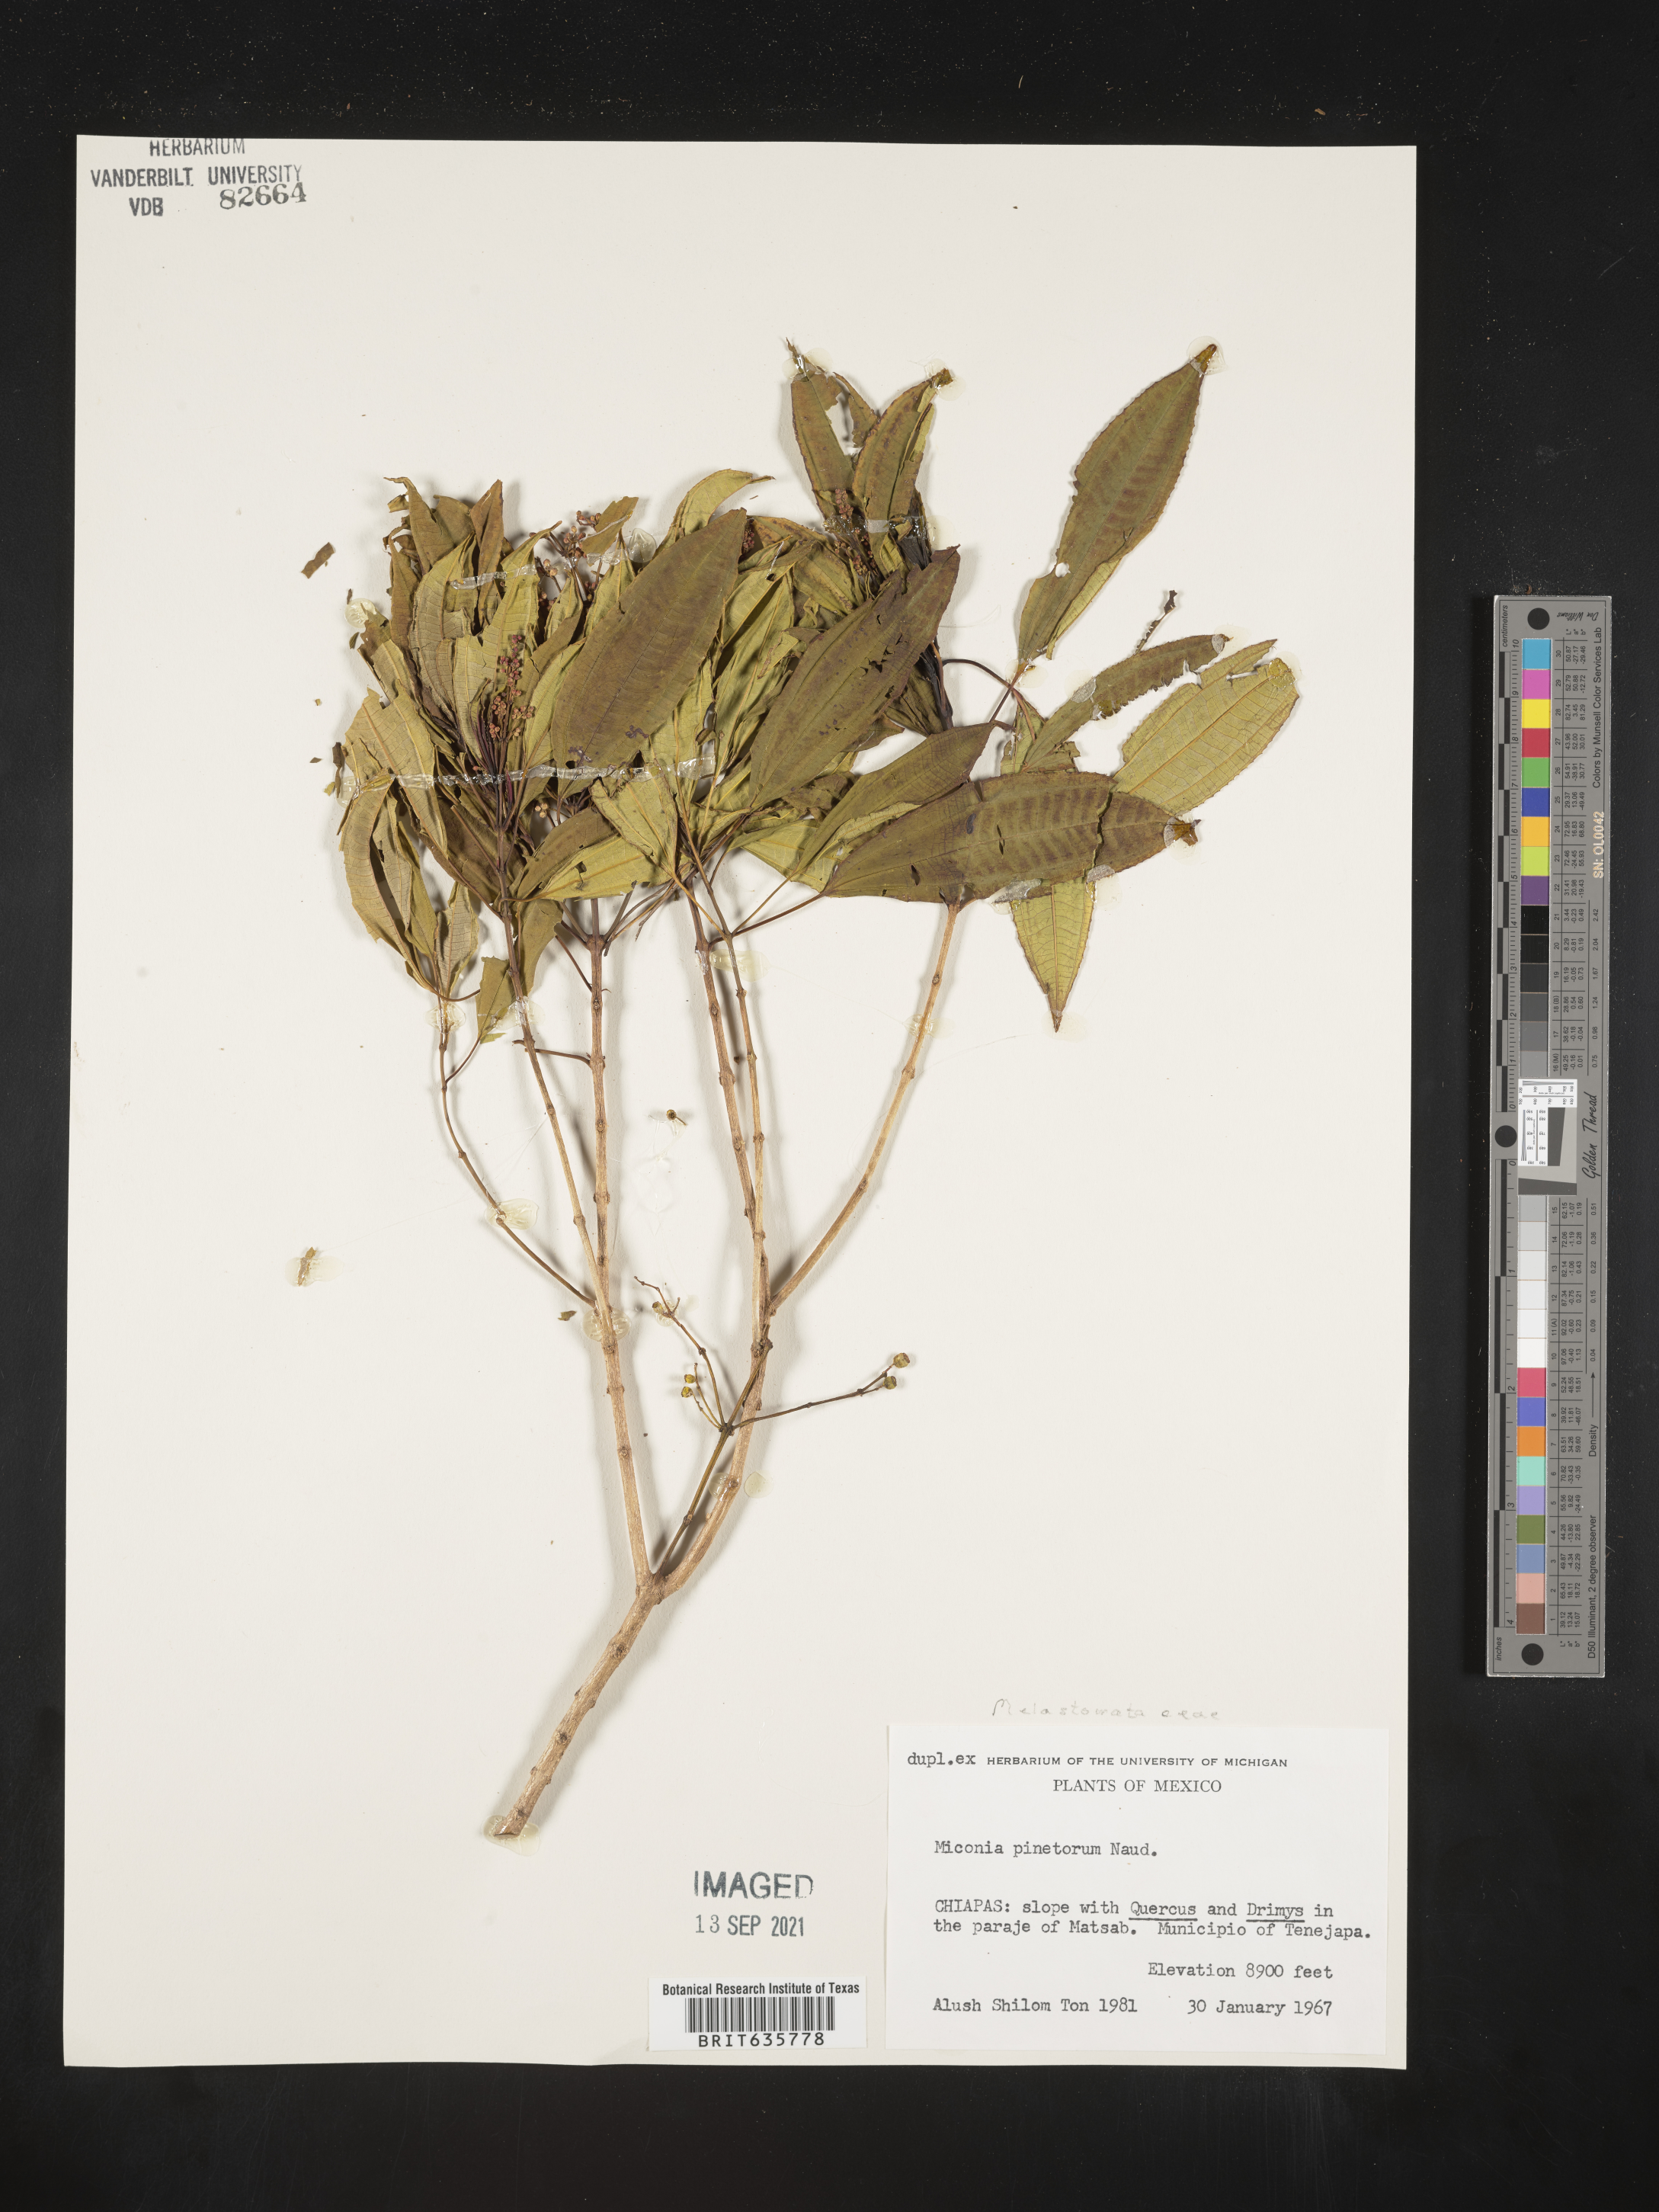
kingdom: Plantae
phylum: Tracheophyta
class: Magnoliopsida
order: Myrtales
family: Melastomataceae
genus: Miconia
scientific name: Miconia
